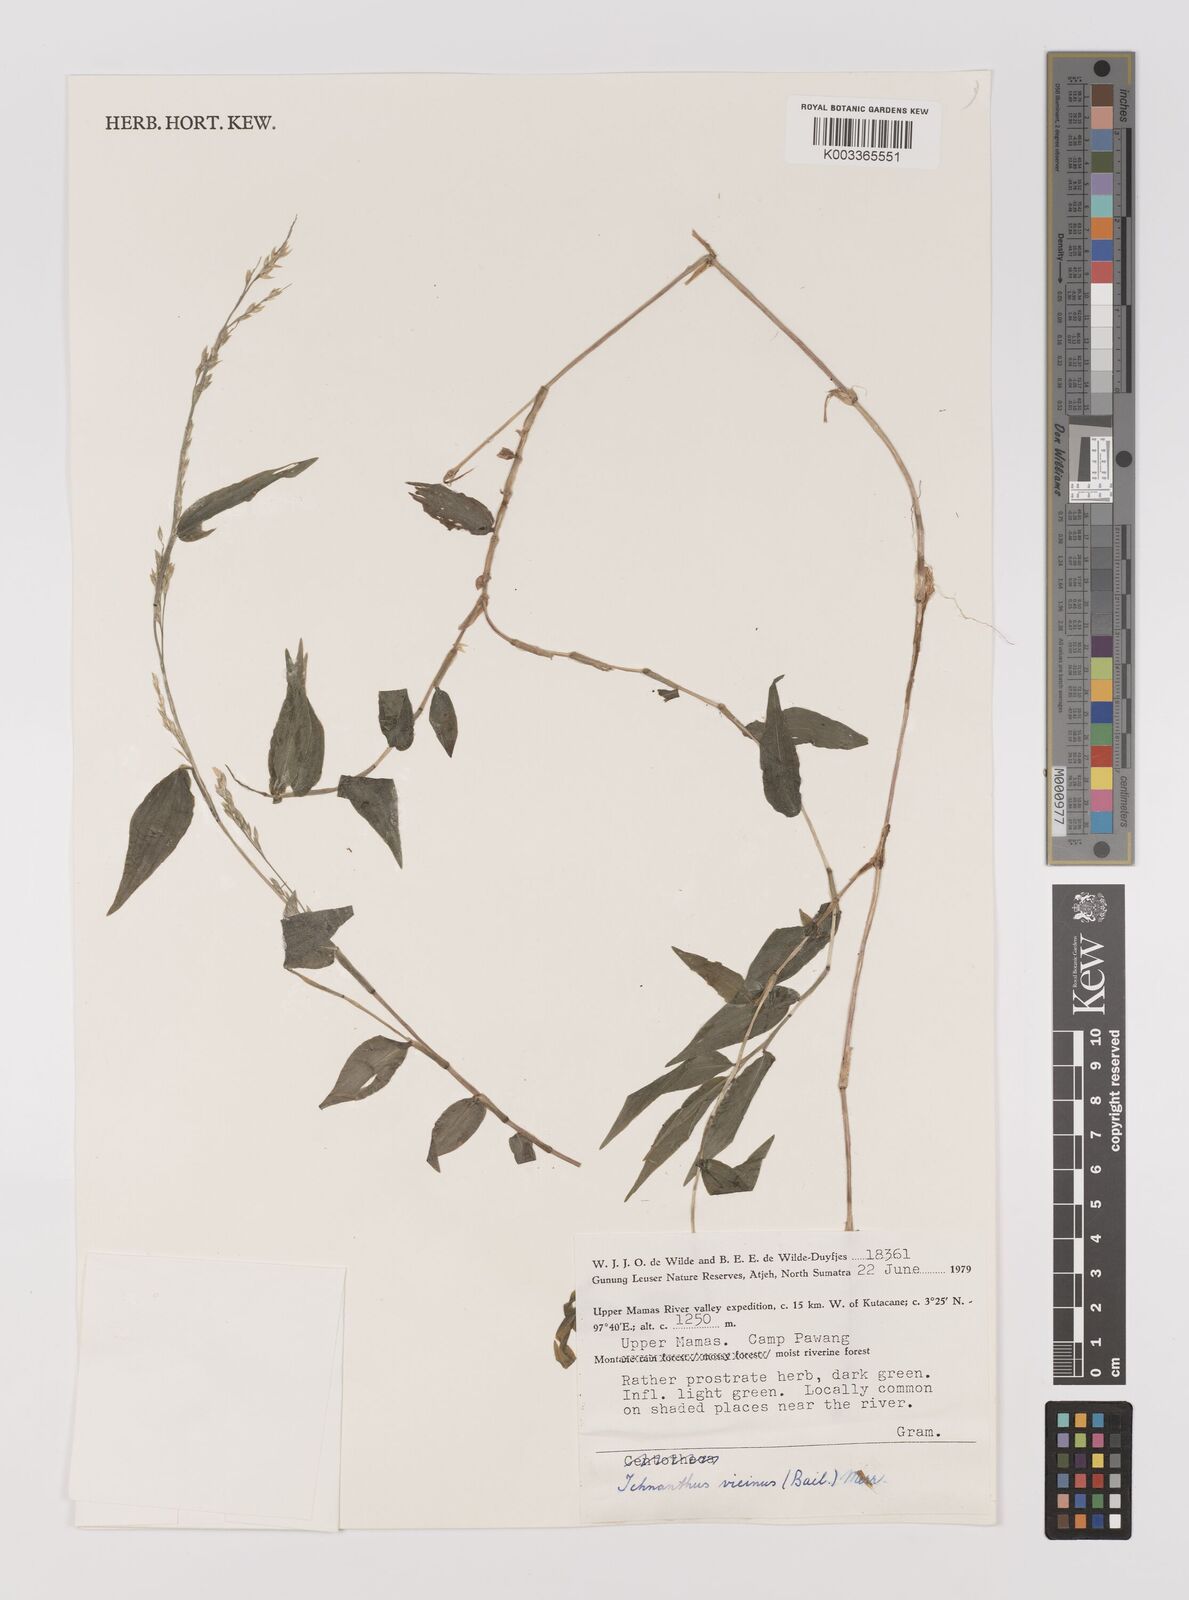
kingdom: Plantae
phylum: Tracheophyta
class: Liliopsida
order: Poales
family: Poaceae
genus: Ichnanthus
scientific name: Ichnanthus pallens
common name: Water grass
